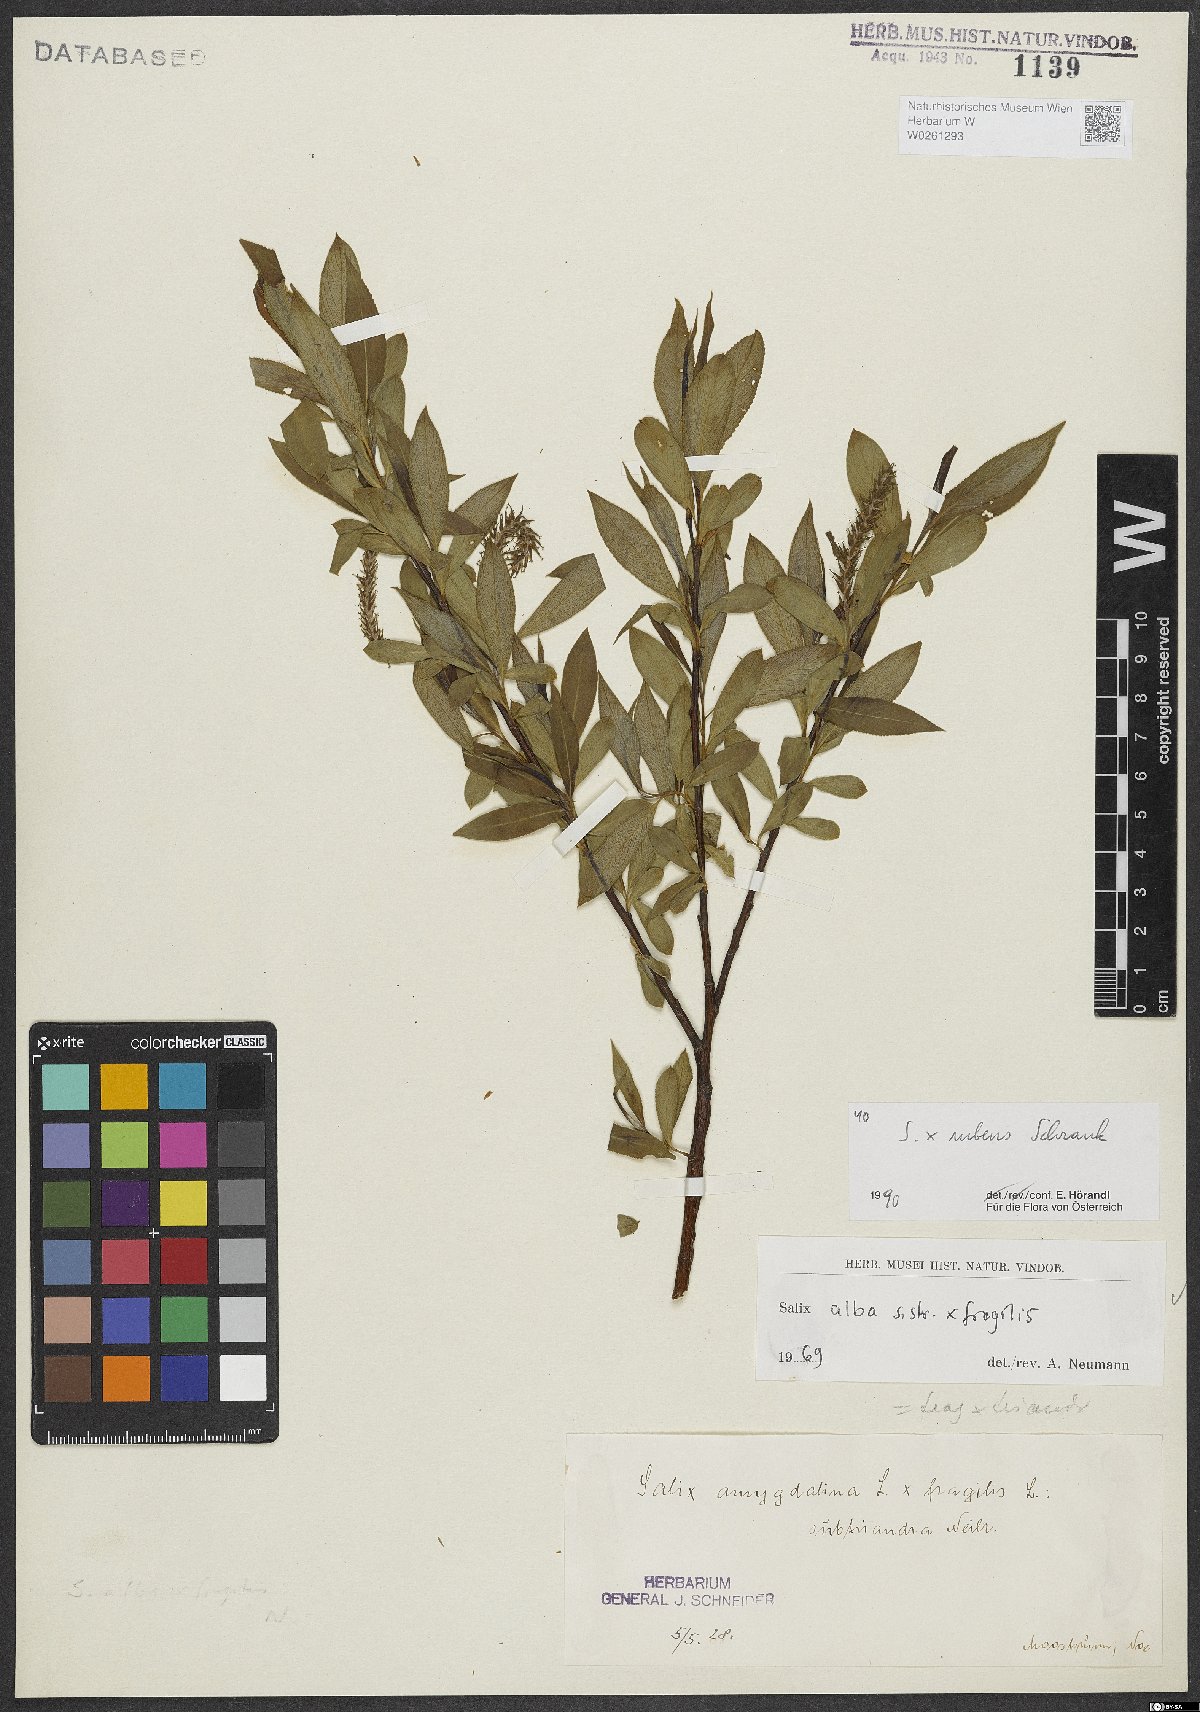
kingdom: Plantae
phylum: Tracheophyta
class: Magnoliopsida
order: Malpighiales
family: Salicaceae
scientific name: Salicaceae
